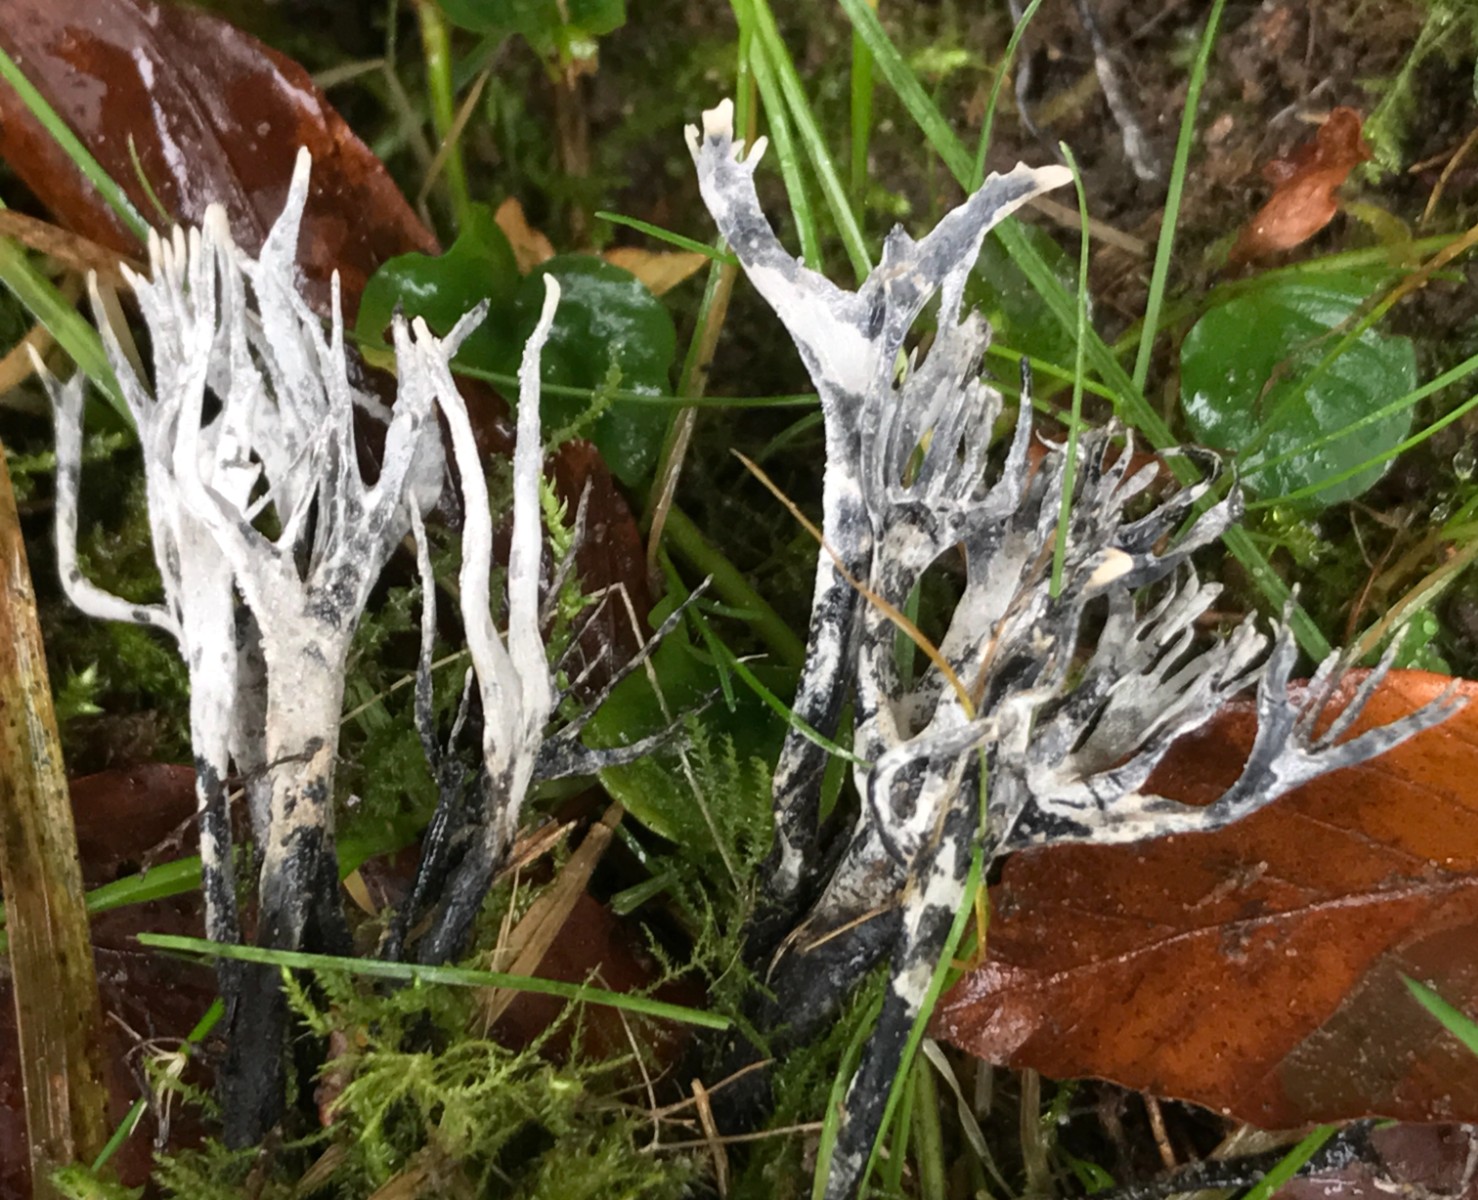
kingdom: Fungi
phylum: Ascomycota
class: Sordariomycetes
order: Xylariales
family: Xylariaceae
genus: Xylaria
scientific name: Xylaria hypoxylon
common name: grenet stødsvamp
